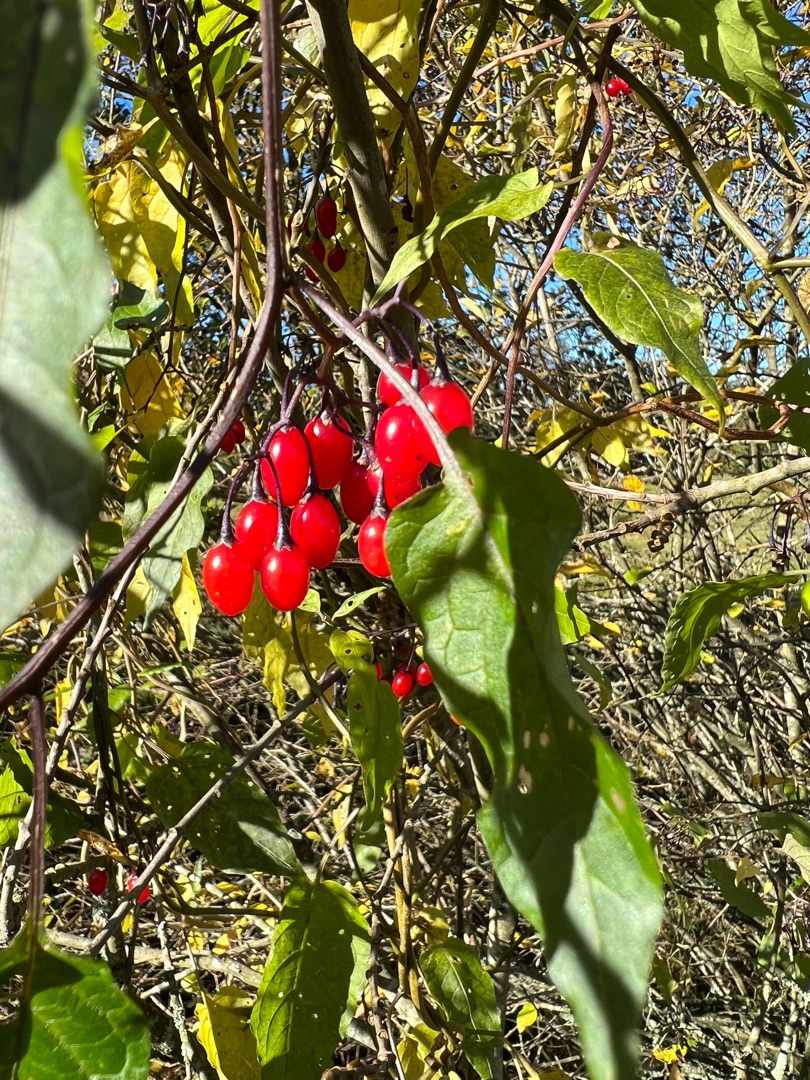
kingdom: Plantae
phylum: Tracheophyta
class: Magnoliopsida
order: Solanales
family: Solanaceae
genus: Solanum
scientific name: Solanum dulcamara
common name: Bittersød natskygge
